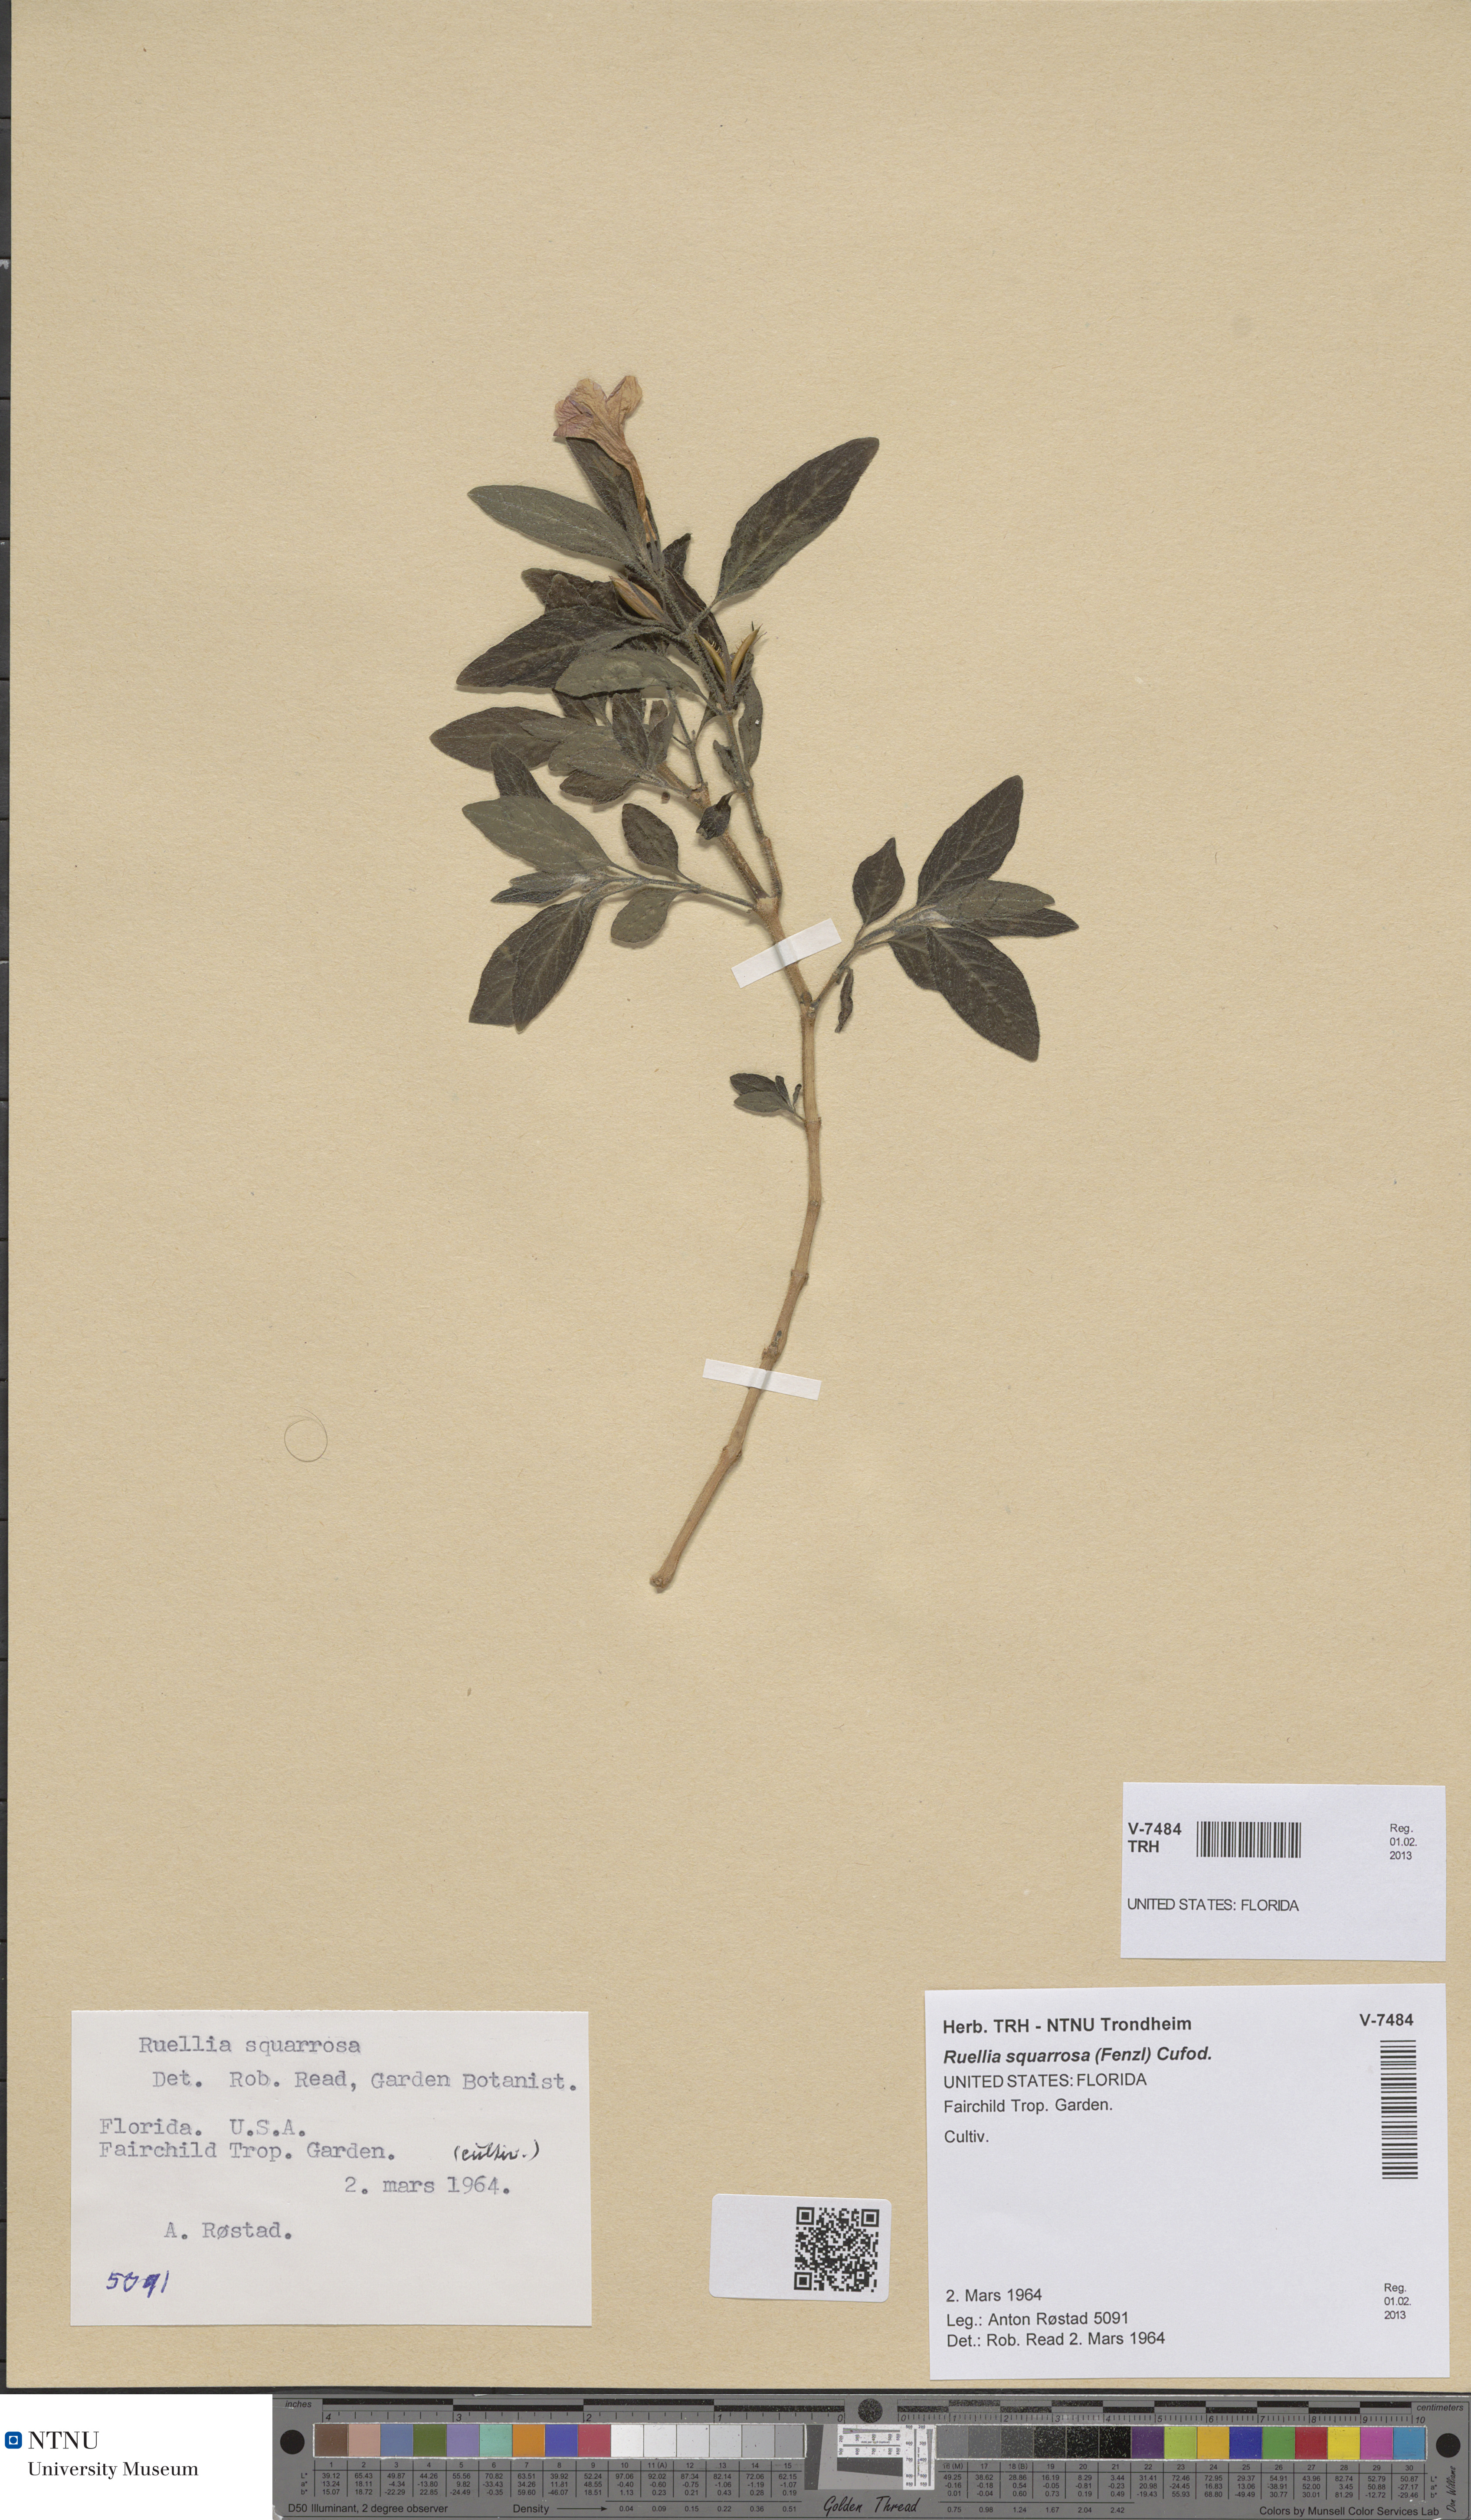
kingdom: Plantae
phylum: Tracheophyta
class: Magnoliopsida
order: Lamiales
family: Acanthaceae
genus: Ruellia
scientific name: Ruellia longepetiolata
